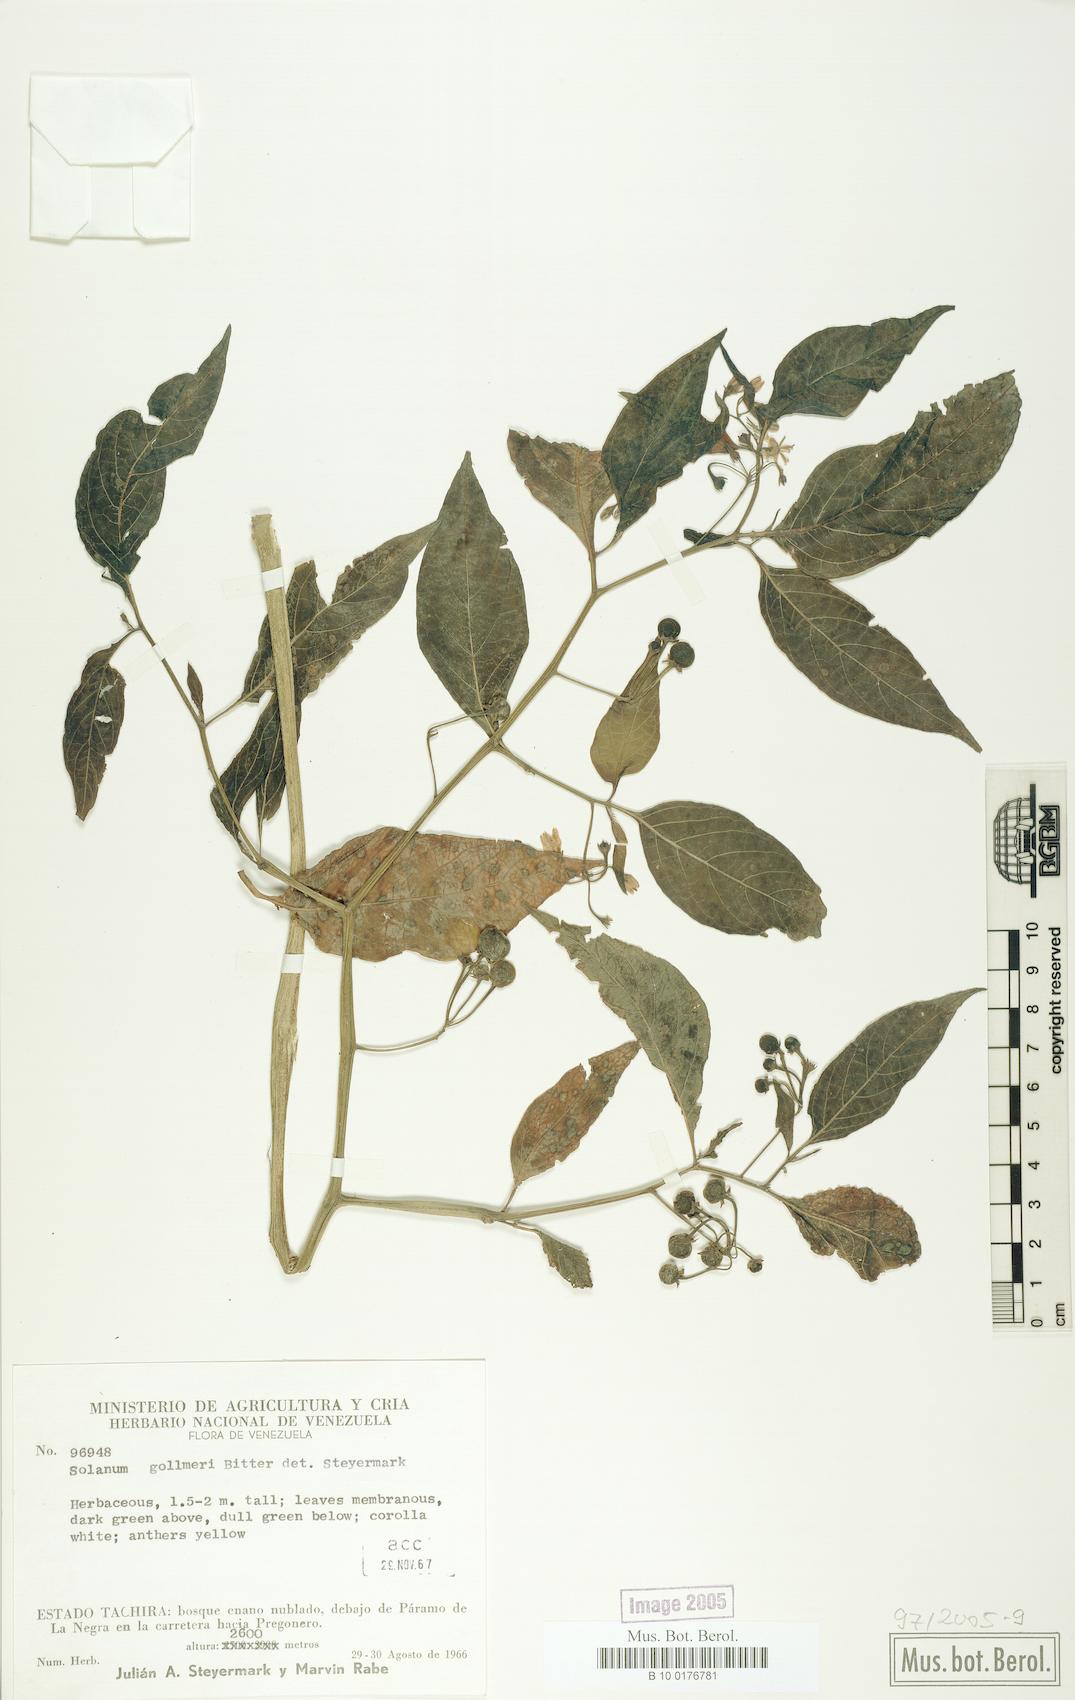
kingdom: Plantae
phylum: Tracheophyta
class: Magnoliopsida
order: Solanales
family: Solanaceae
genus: Solanum
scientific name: Solanum
